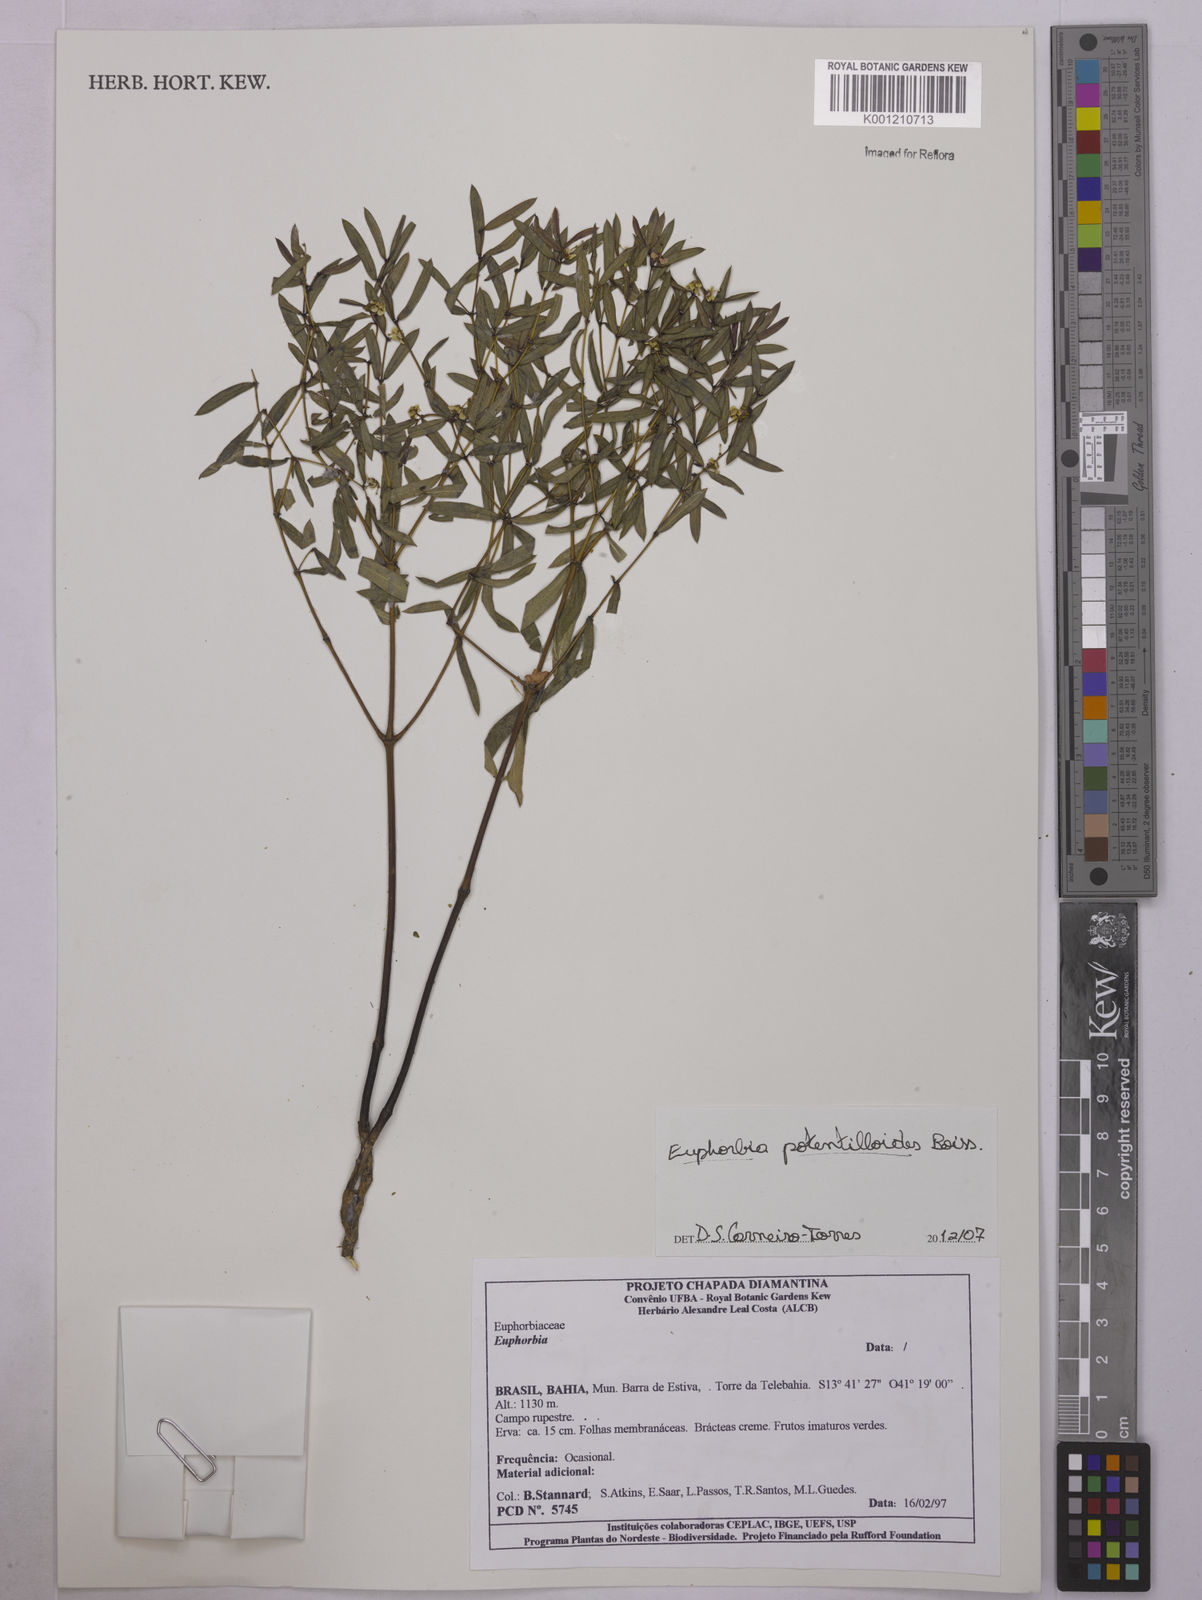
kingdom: Plantae
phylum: Tracheophyta
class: Magnoliopsida
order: Malpighiales
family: Euphorbiaceae
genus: Euphorbia
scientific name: Euphorbia potentilloides
